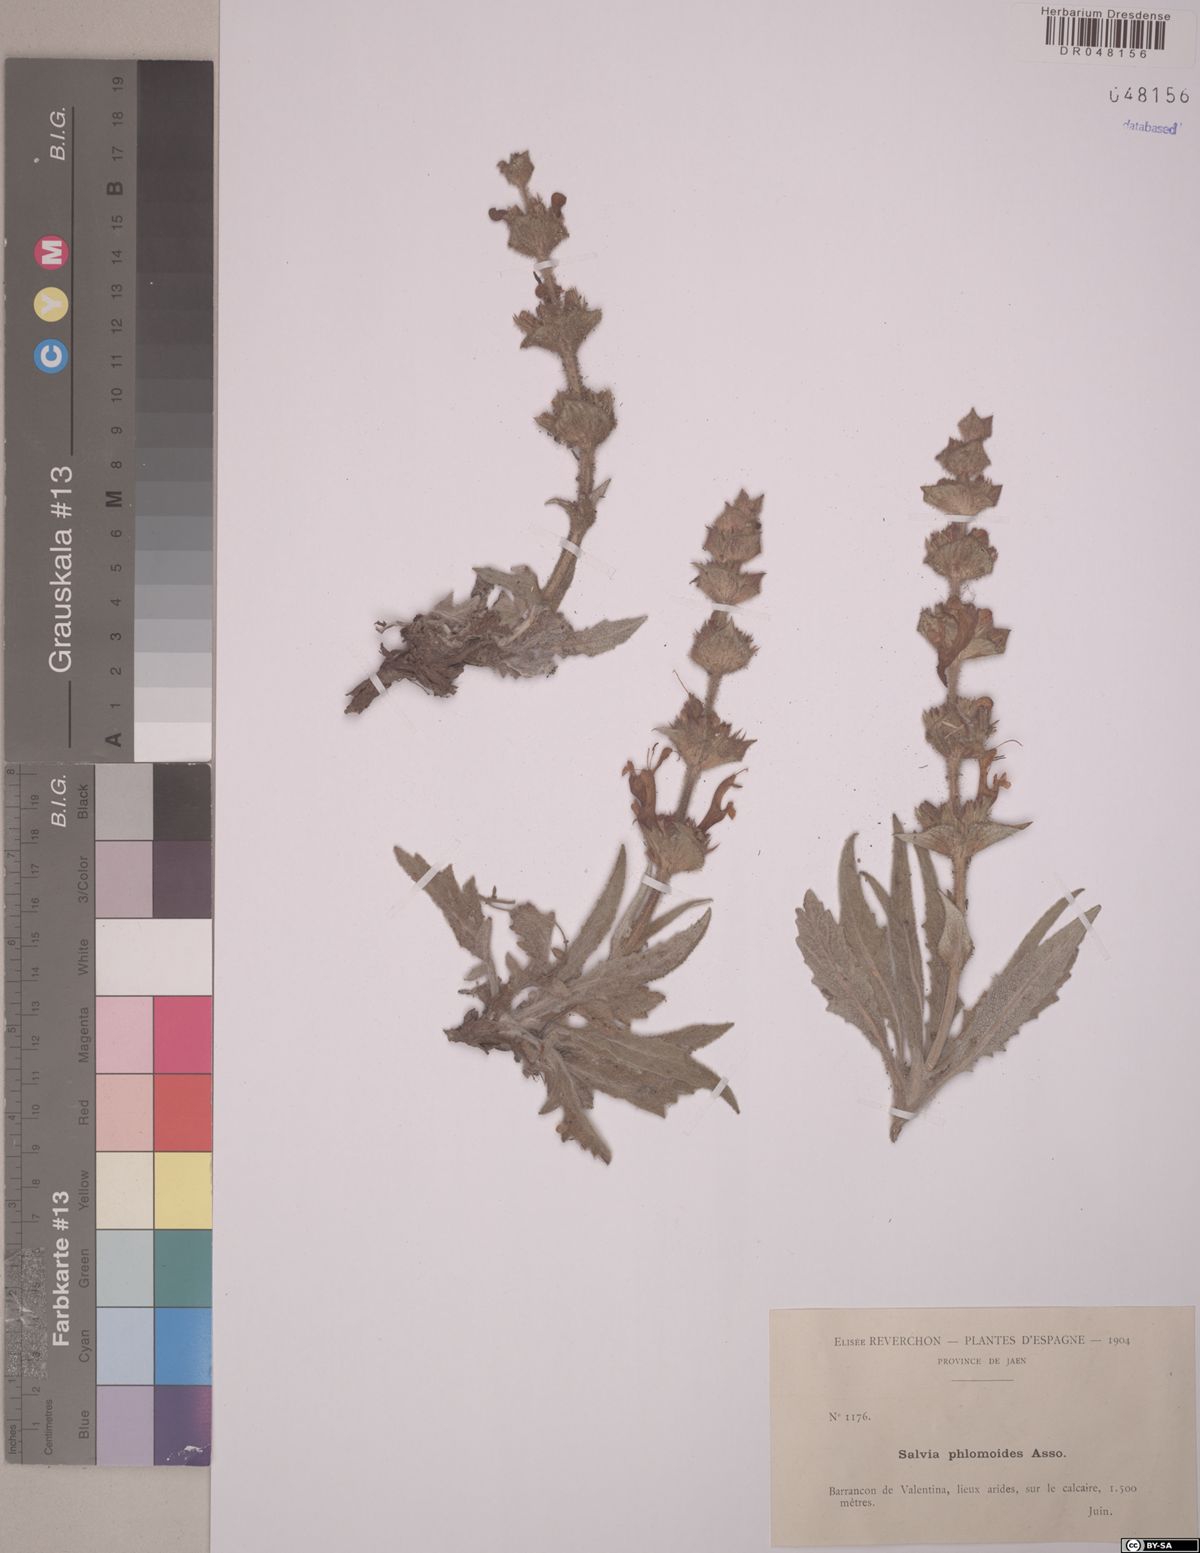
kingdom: Plantae
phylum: Tracheophyta
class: Magnoliopsida
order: Lamiales
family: Lamiaceae
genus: Salvia
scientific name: Salvia phlomoides
